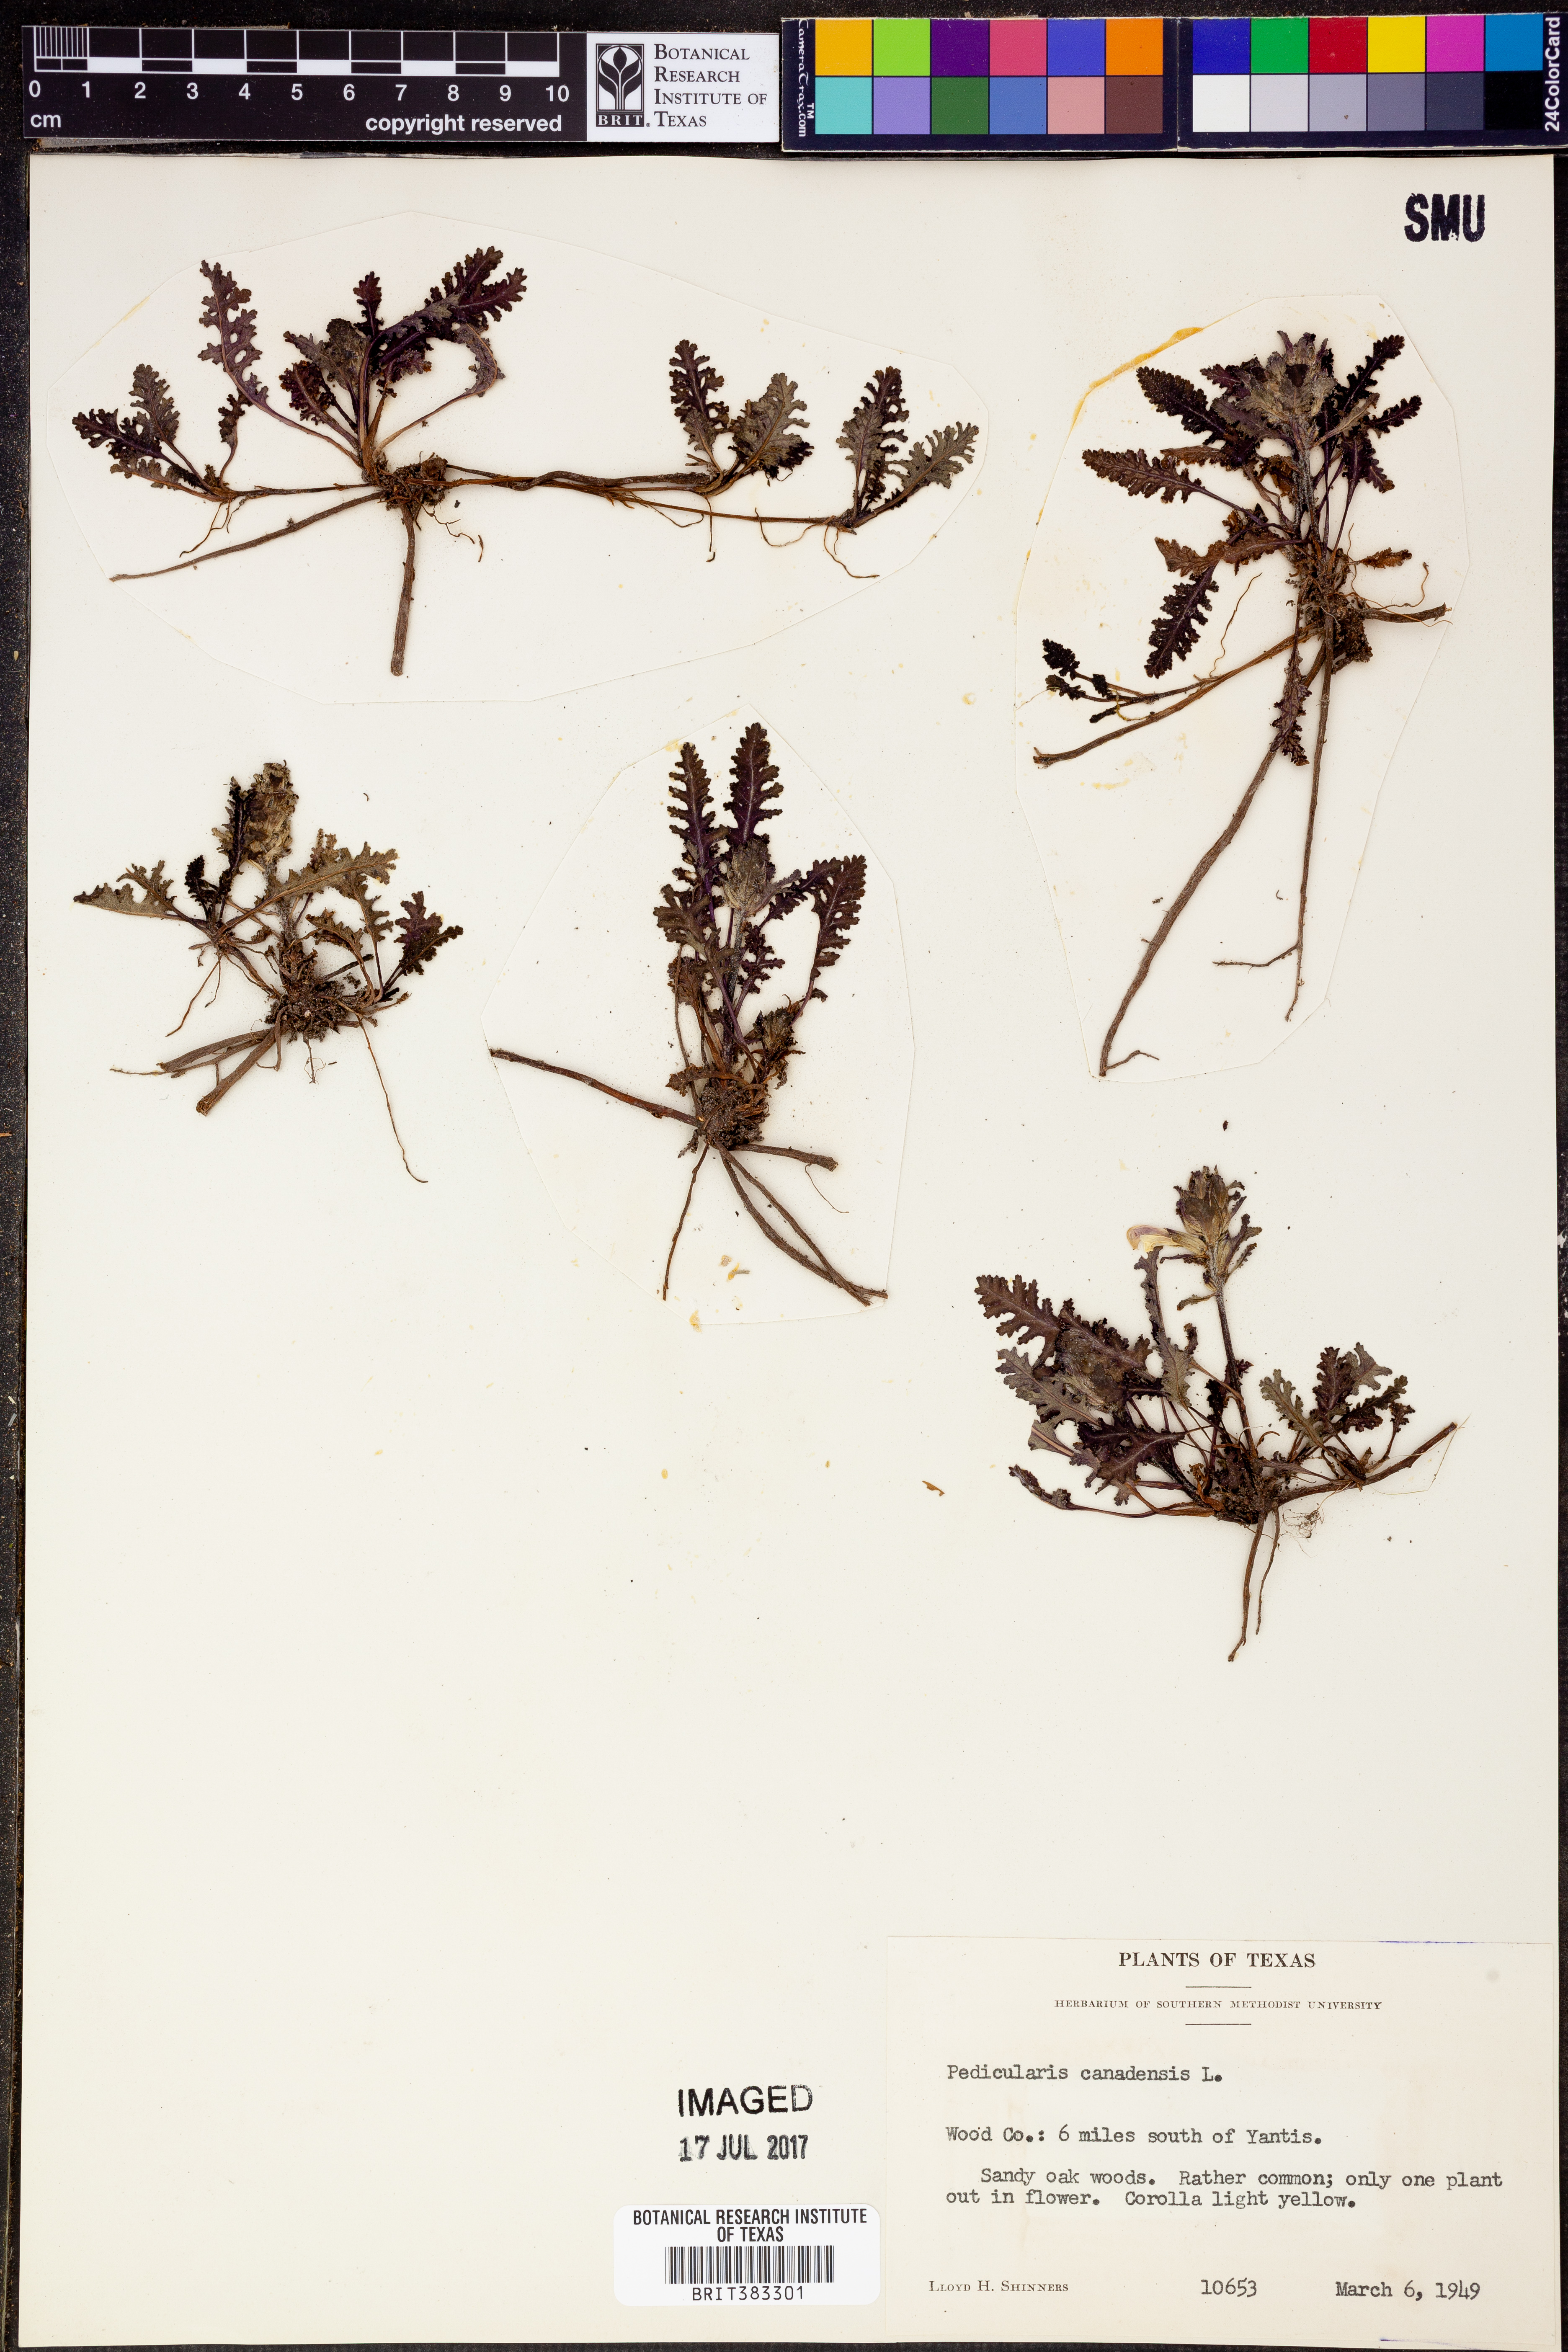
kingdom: Plantae
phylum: Tracheophyta
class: Magnoliopsida
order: Lamiales
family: Orobanchaceae
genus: Pedicularis
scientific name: Pedicularis canadensis
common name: Early lousewort
